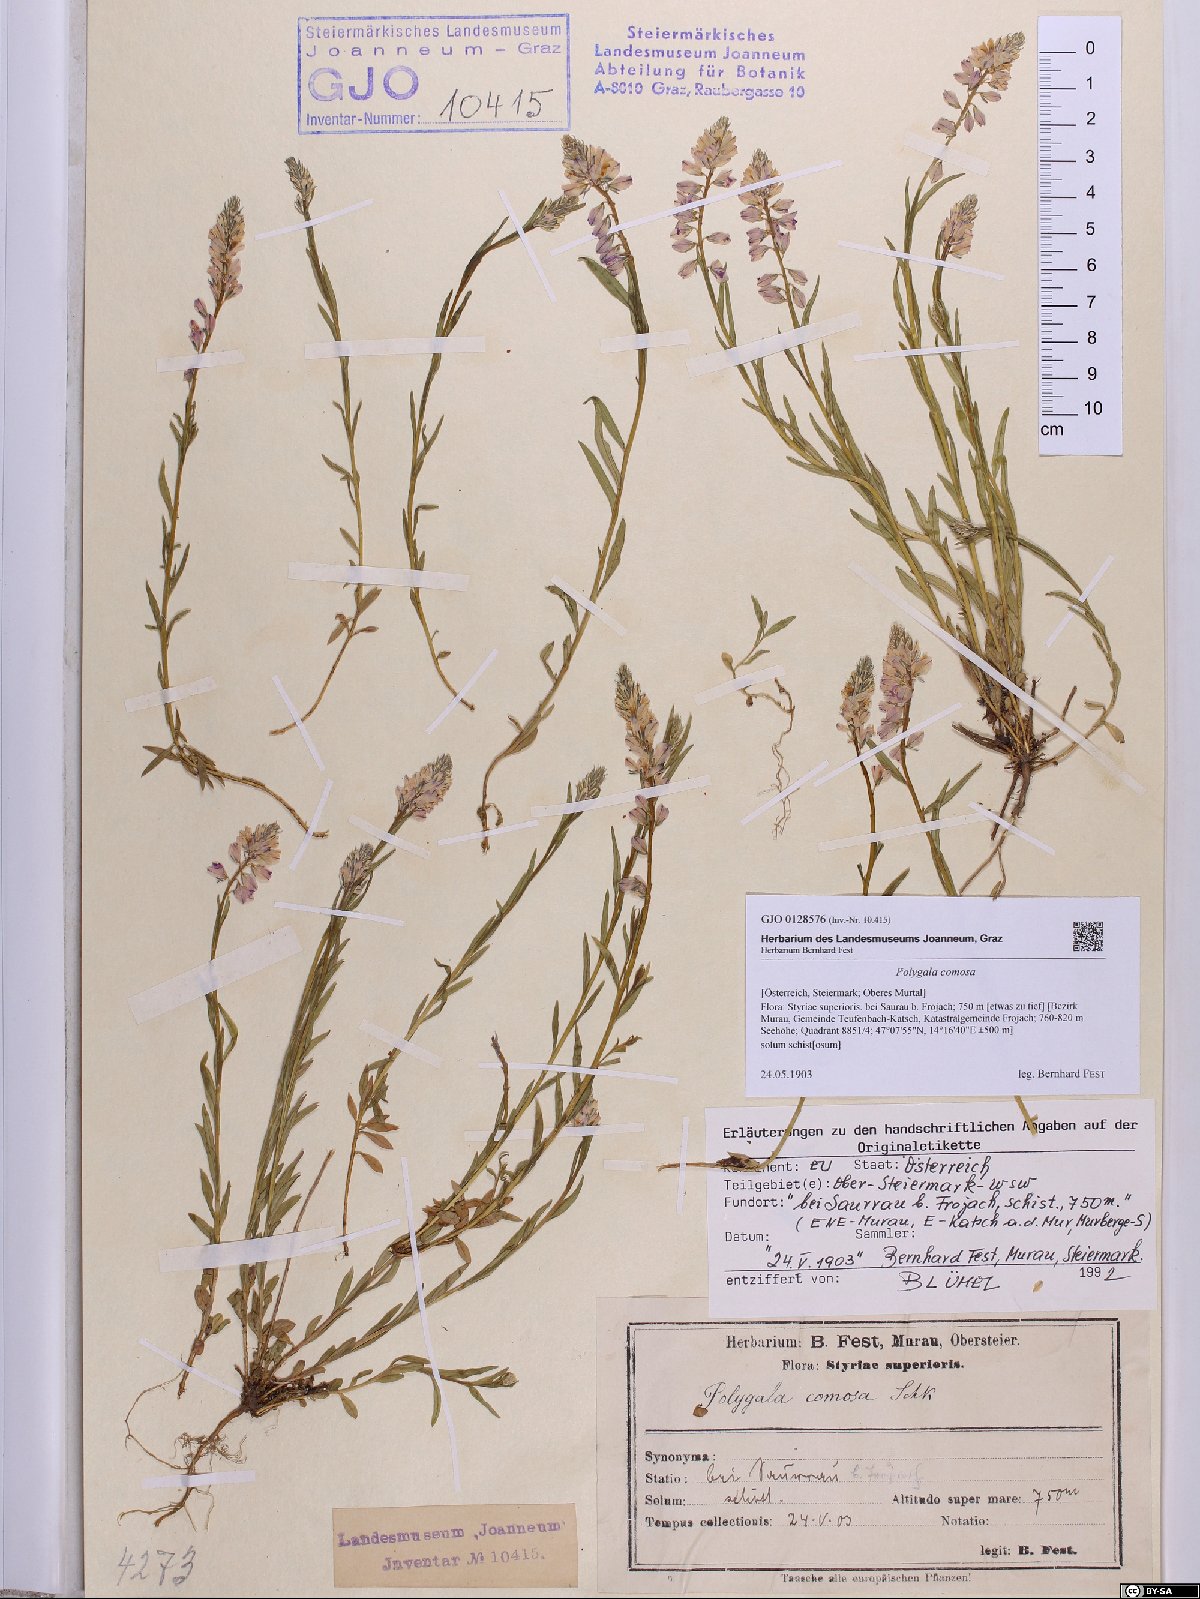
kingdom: Plantae
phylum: Tracheophyta
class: Magnoliopsida
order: Fabales
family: Polygalaceae
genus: Polygala
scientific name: Polygala comosa
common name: Tufted milkwort
